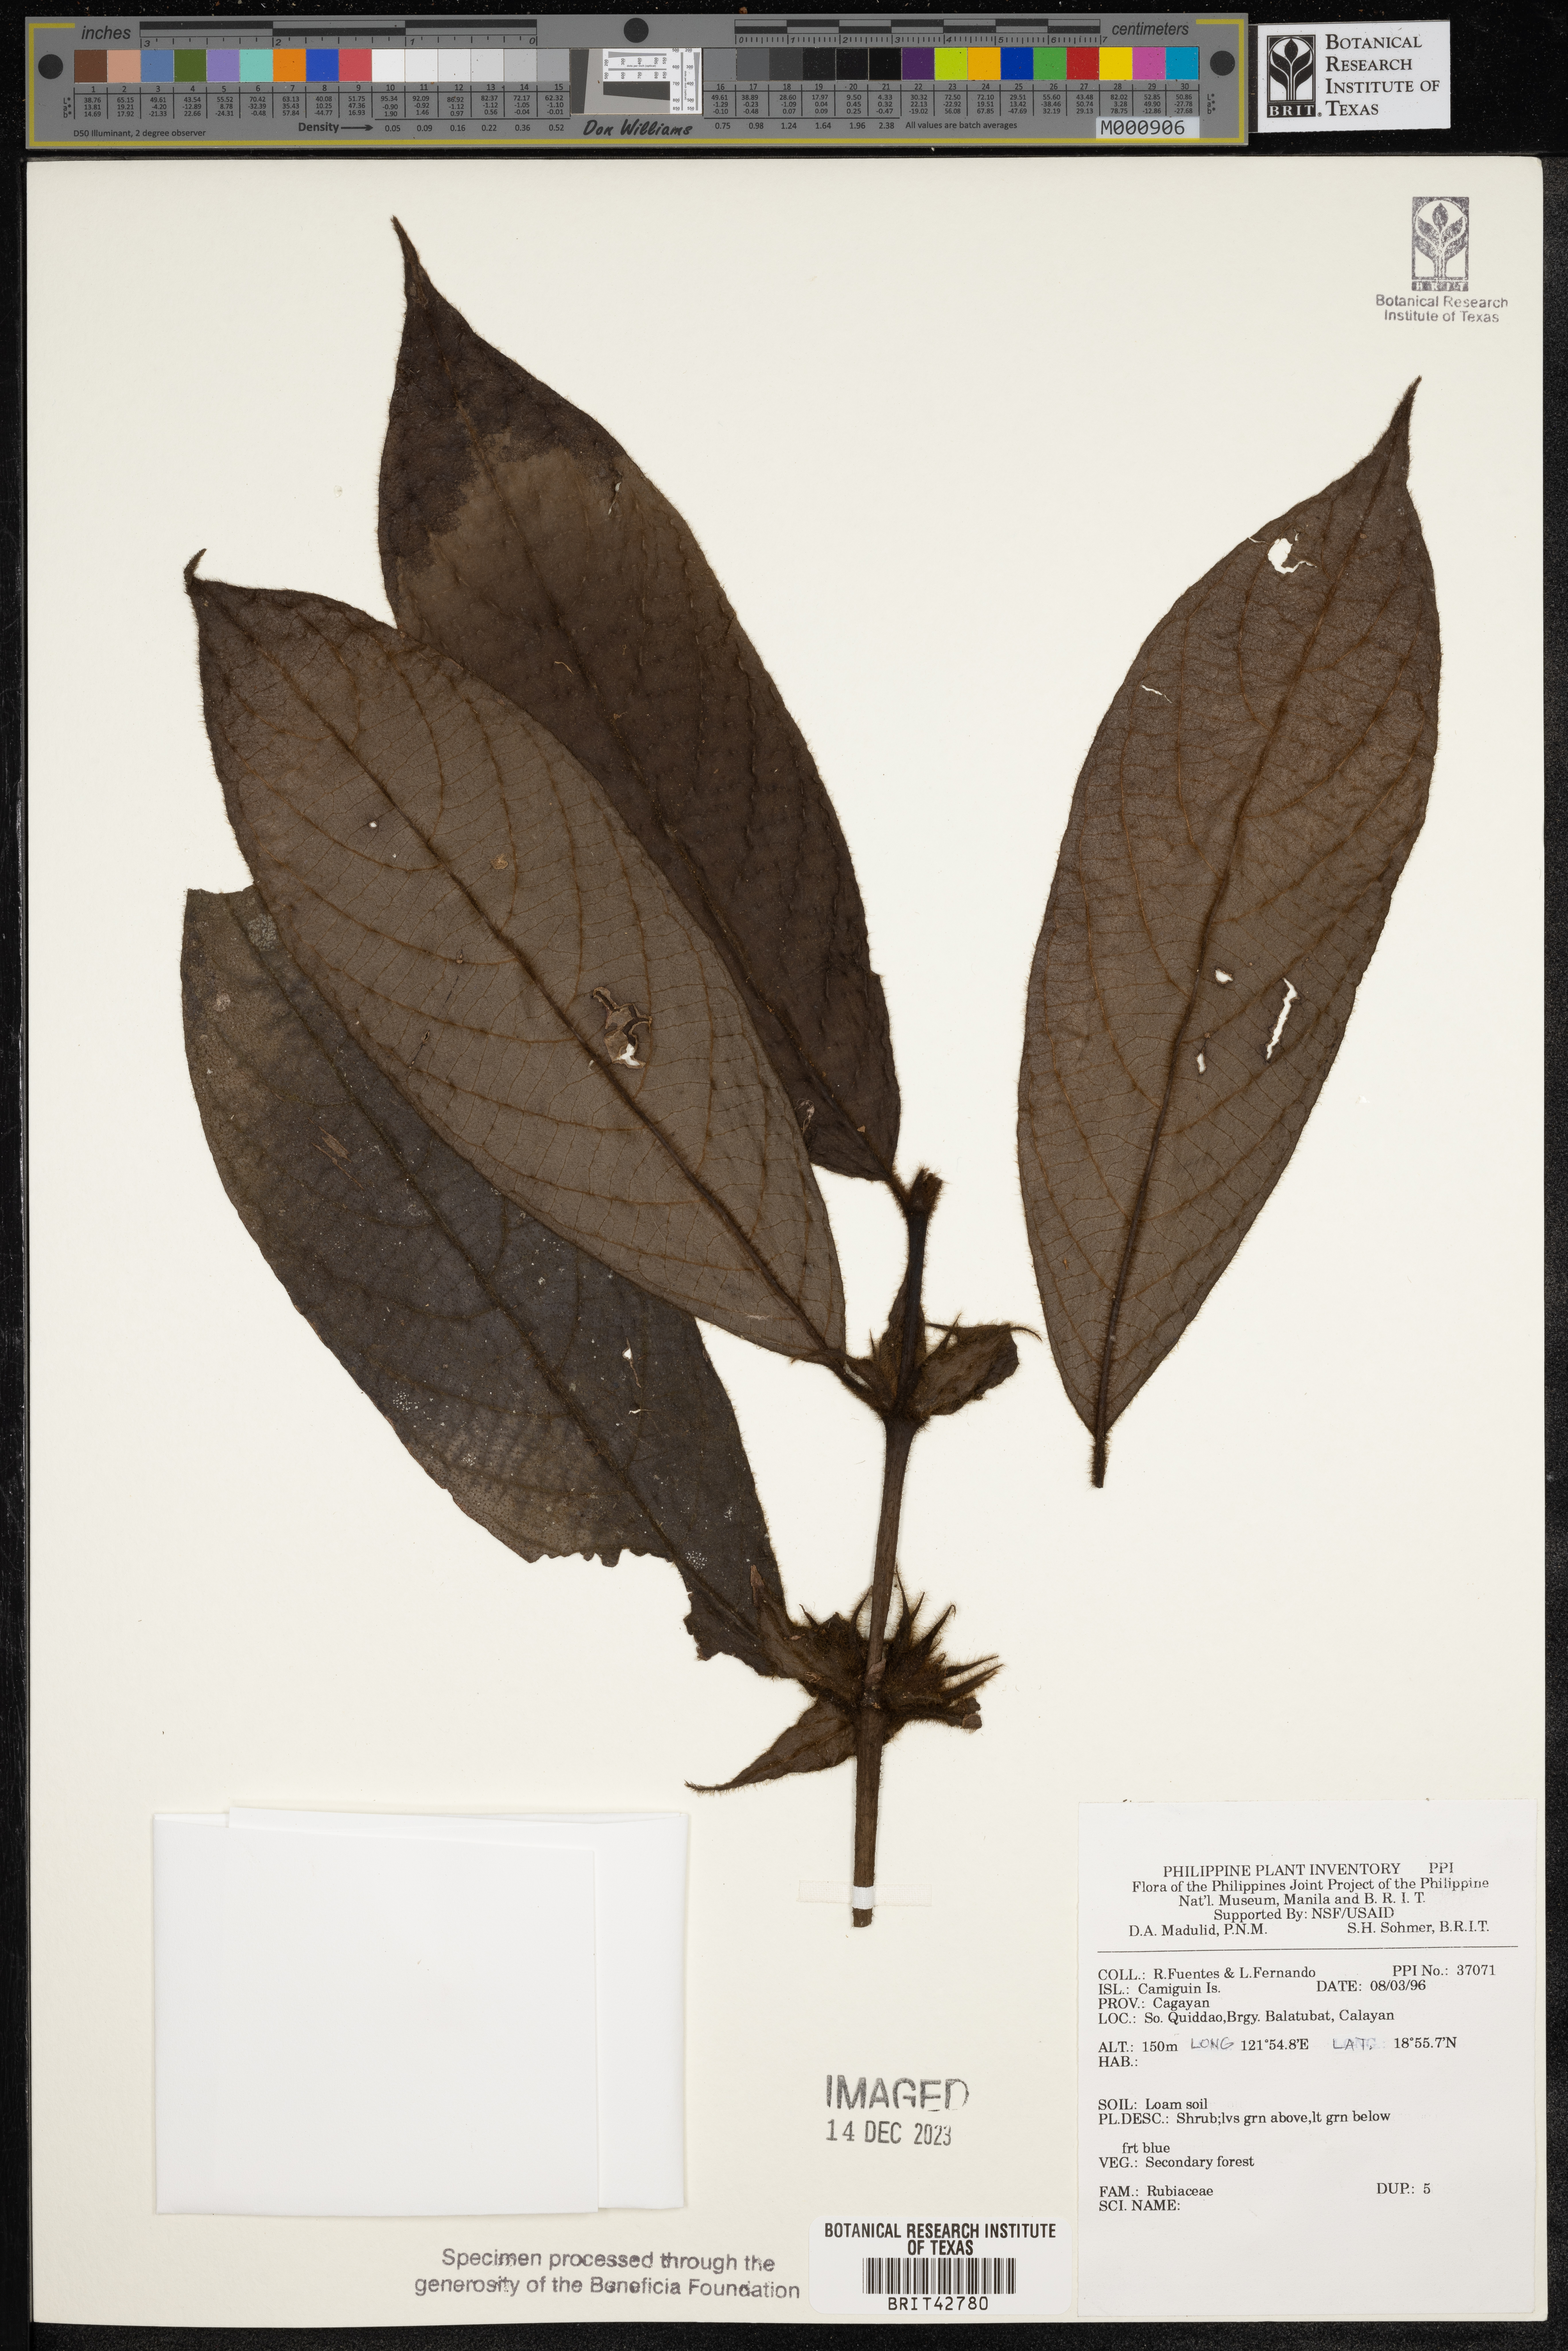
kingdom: Plantae
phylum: Tracheophyta
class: Magnoliopsida
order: Gentianales
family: Rubiaceae
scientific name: Rubiaceae
